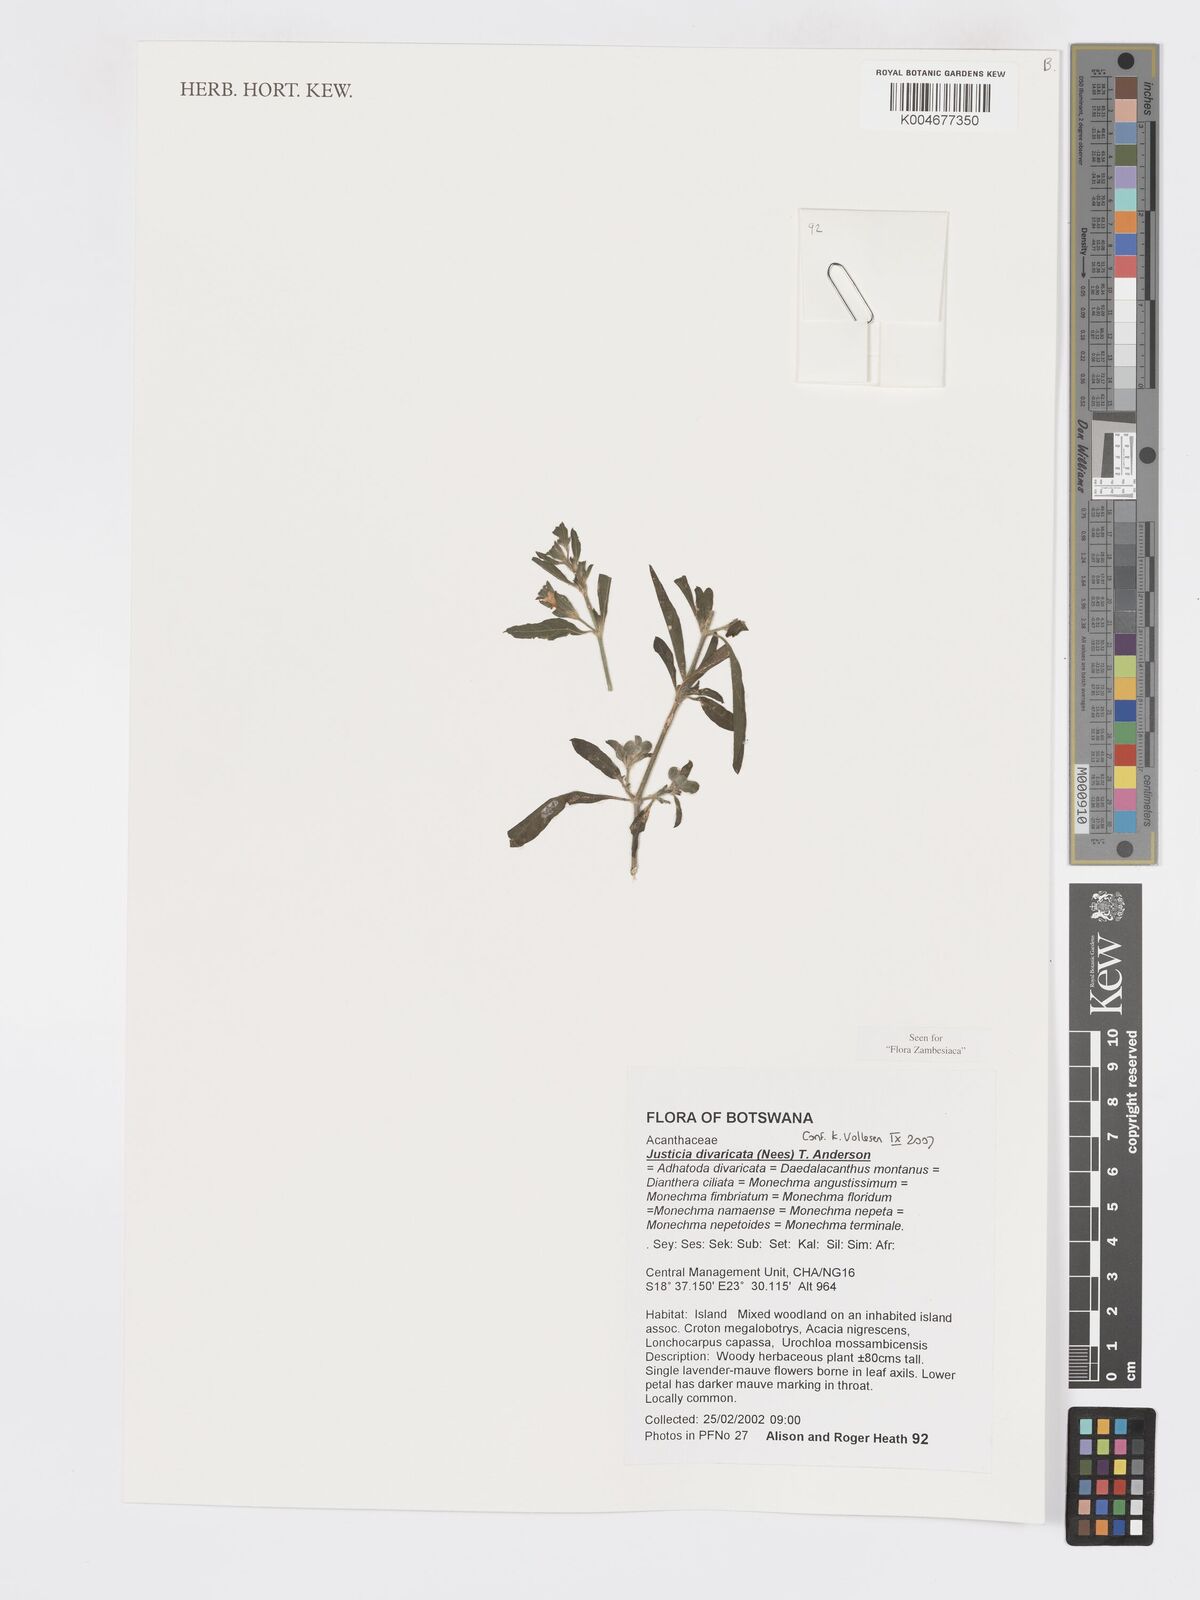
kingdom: Plantae
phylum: Tracheophyta
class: Magnoliopsida
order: Lamiales
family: Acanthaceae
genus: Pogonospermum
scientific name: Pogonospermum
